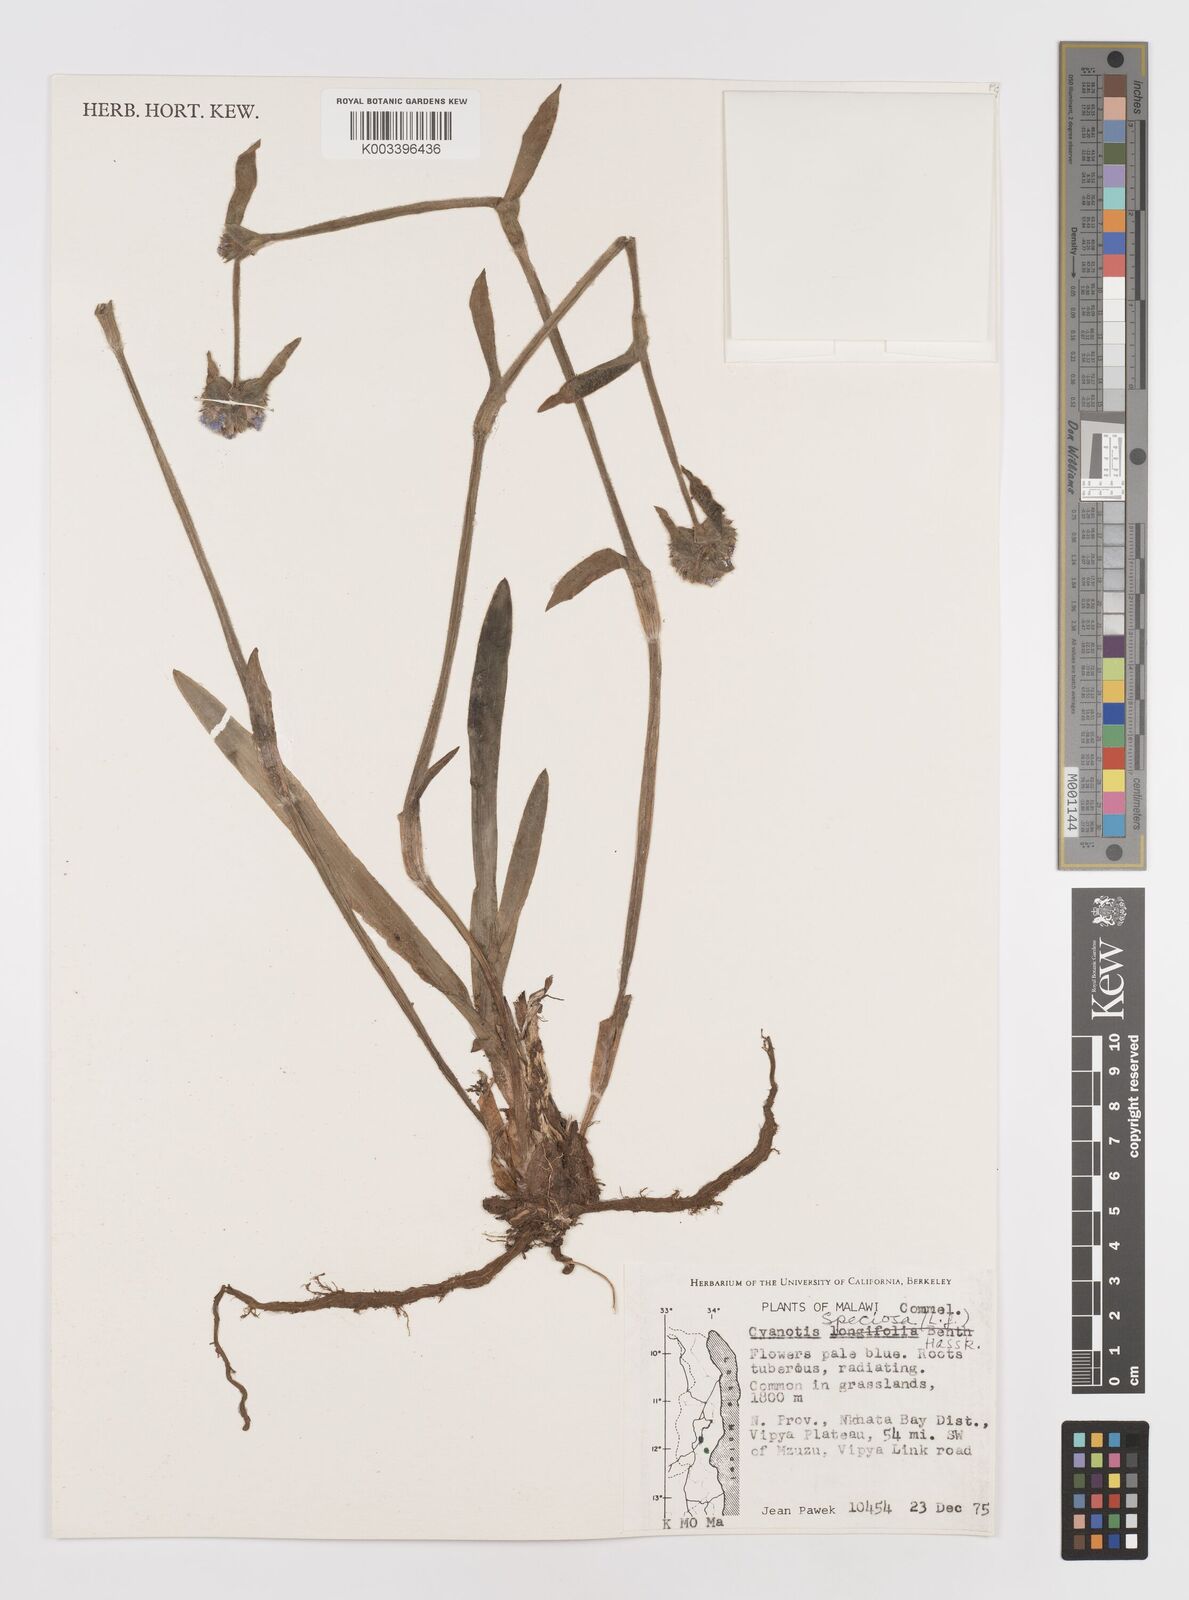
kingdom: Plantae
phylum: Tracheophyta
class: Liliopsida
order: Commelinales
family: Commelinaceae
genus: Cyanotis
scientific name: Cyanotis speciosa
